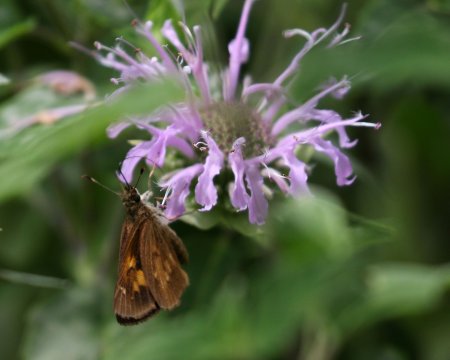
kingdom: Animalia
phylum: Arthropoda
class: Insecta
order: Lepidoptera
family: Hesperiidae
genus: Poanes
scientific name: Poanes viator
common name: Broad-winged Skipper
